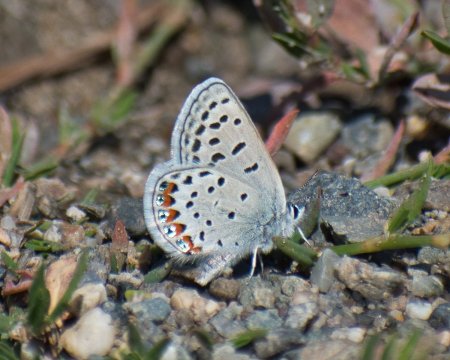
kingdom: Animalia
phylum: Arthropoda
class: Insecta
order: Lepidoptera
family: Lycaenidae
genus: Plebejus
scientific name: Plebejus lupini
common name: Lupine Blue
